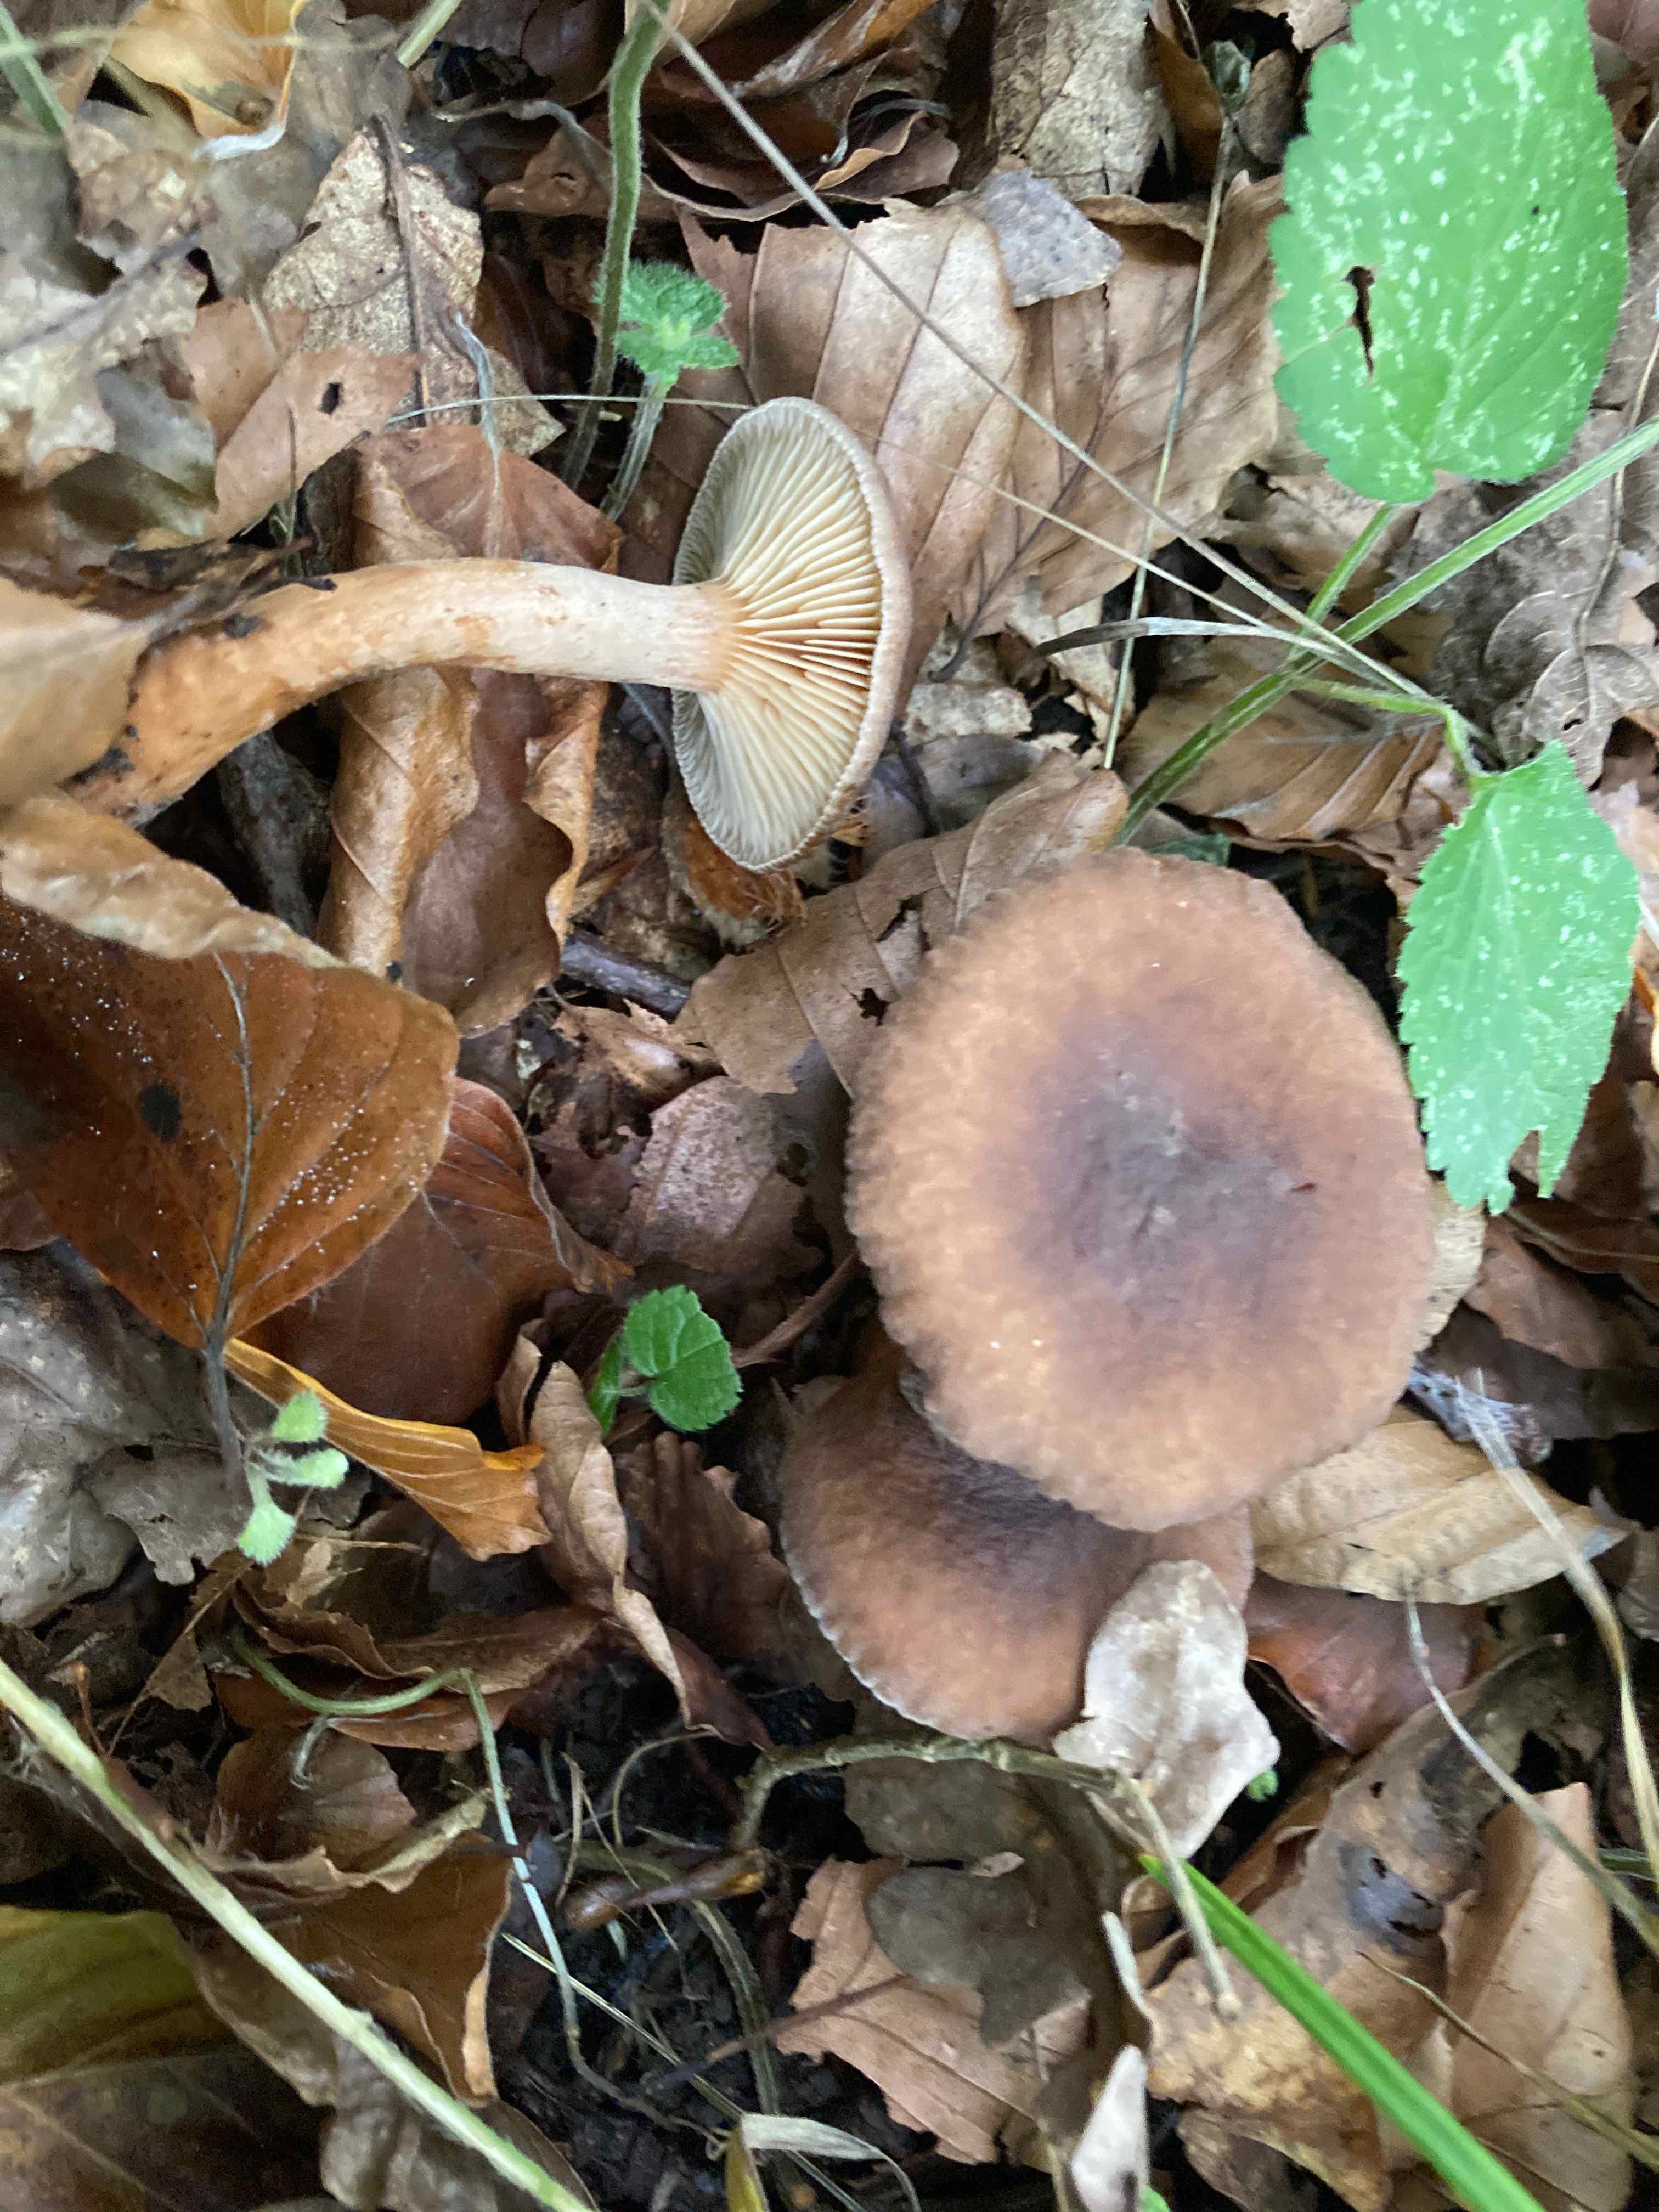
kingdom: Fungi
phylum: Basidiomycota
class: Agaricomycetes
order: Russulales
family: Russulaceae
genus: Lactarius
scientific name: Lactarius serifluus
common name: tæge-mælkehat
